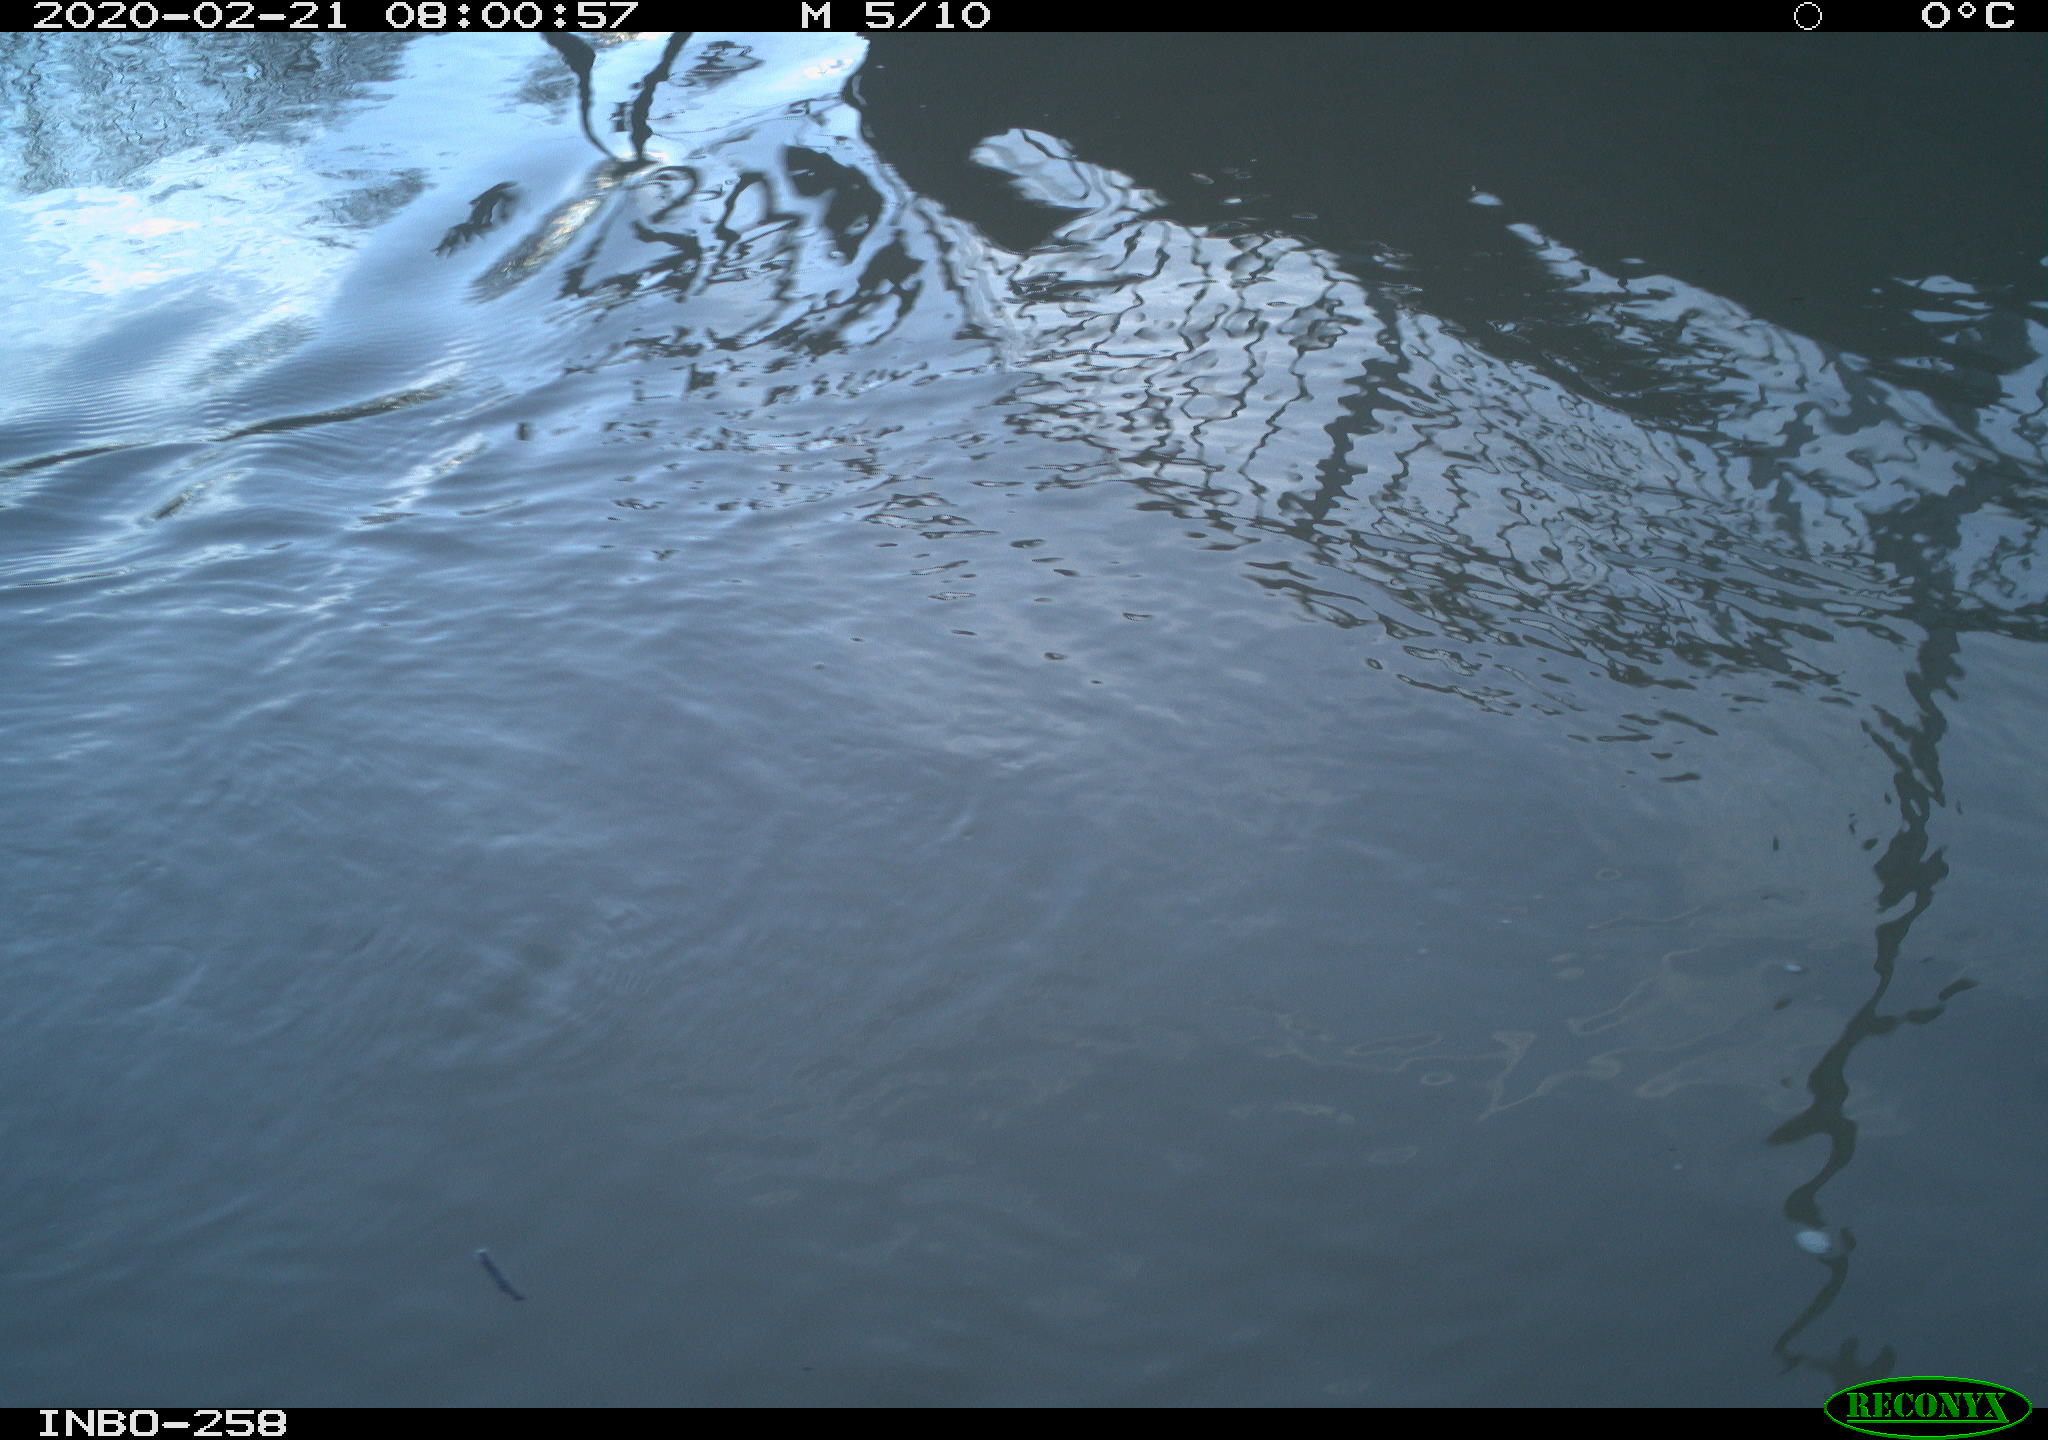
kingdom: Animalia
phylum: Chordata
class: Aves
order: Anseriformes
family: Anatidae
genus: Anas
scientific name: Anas platyrhynchos
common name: Mallard
